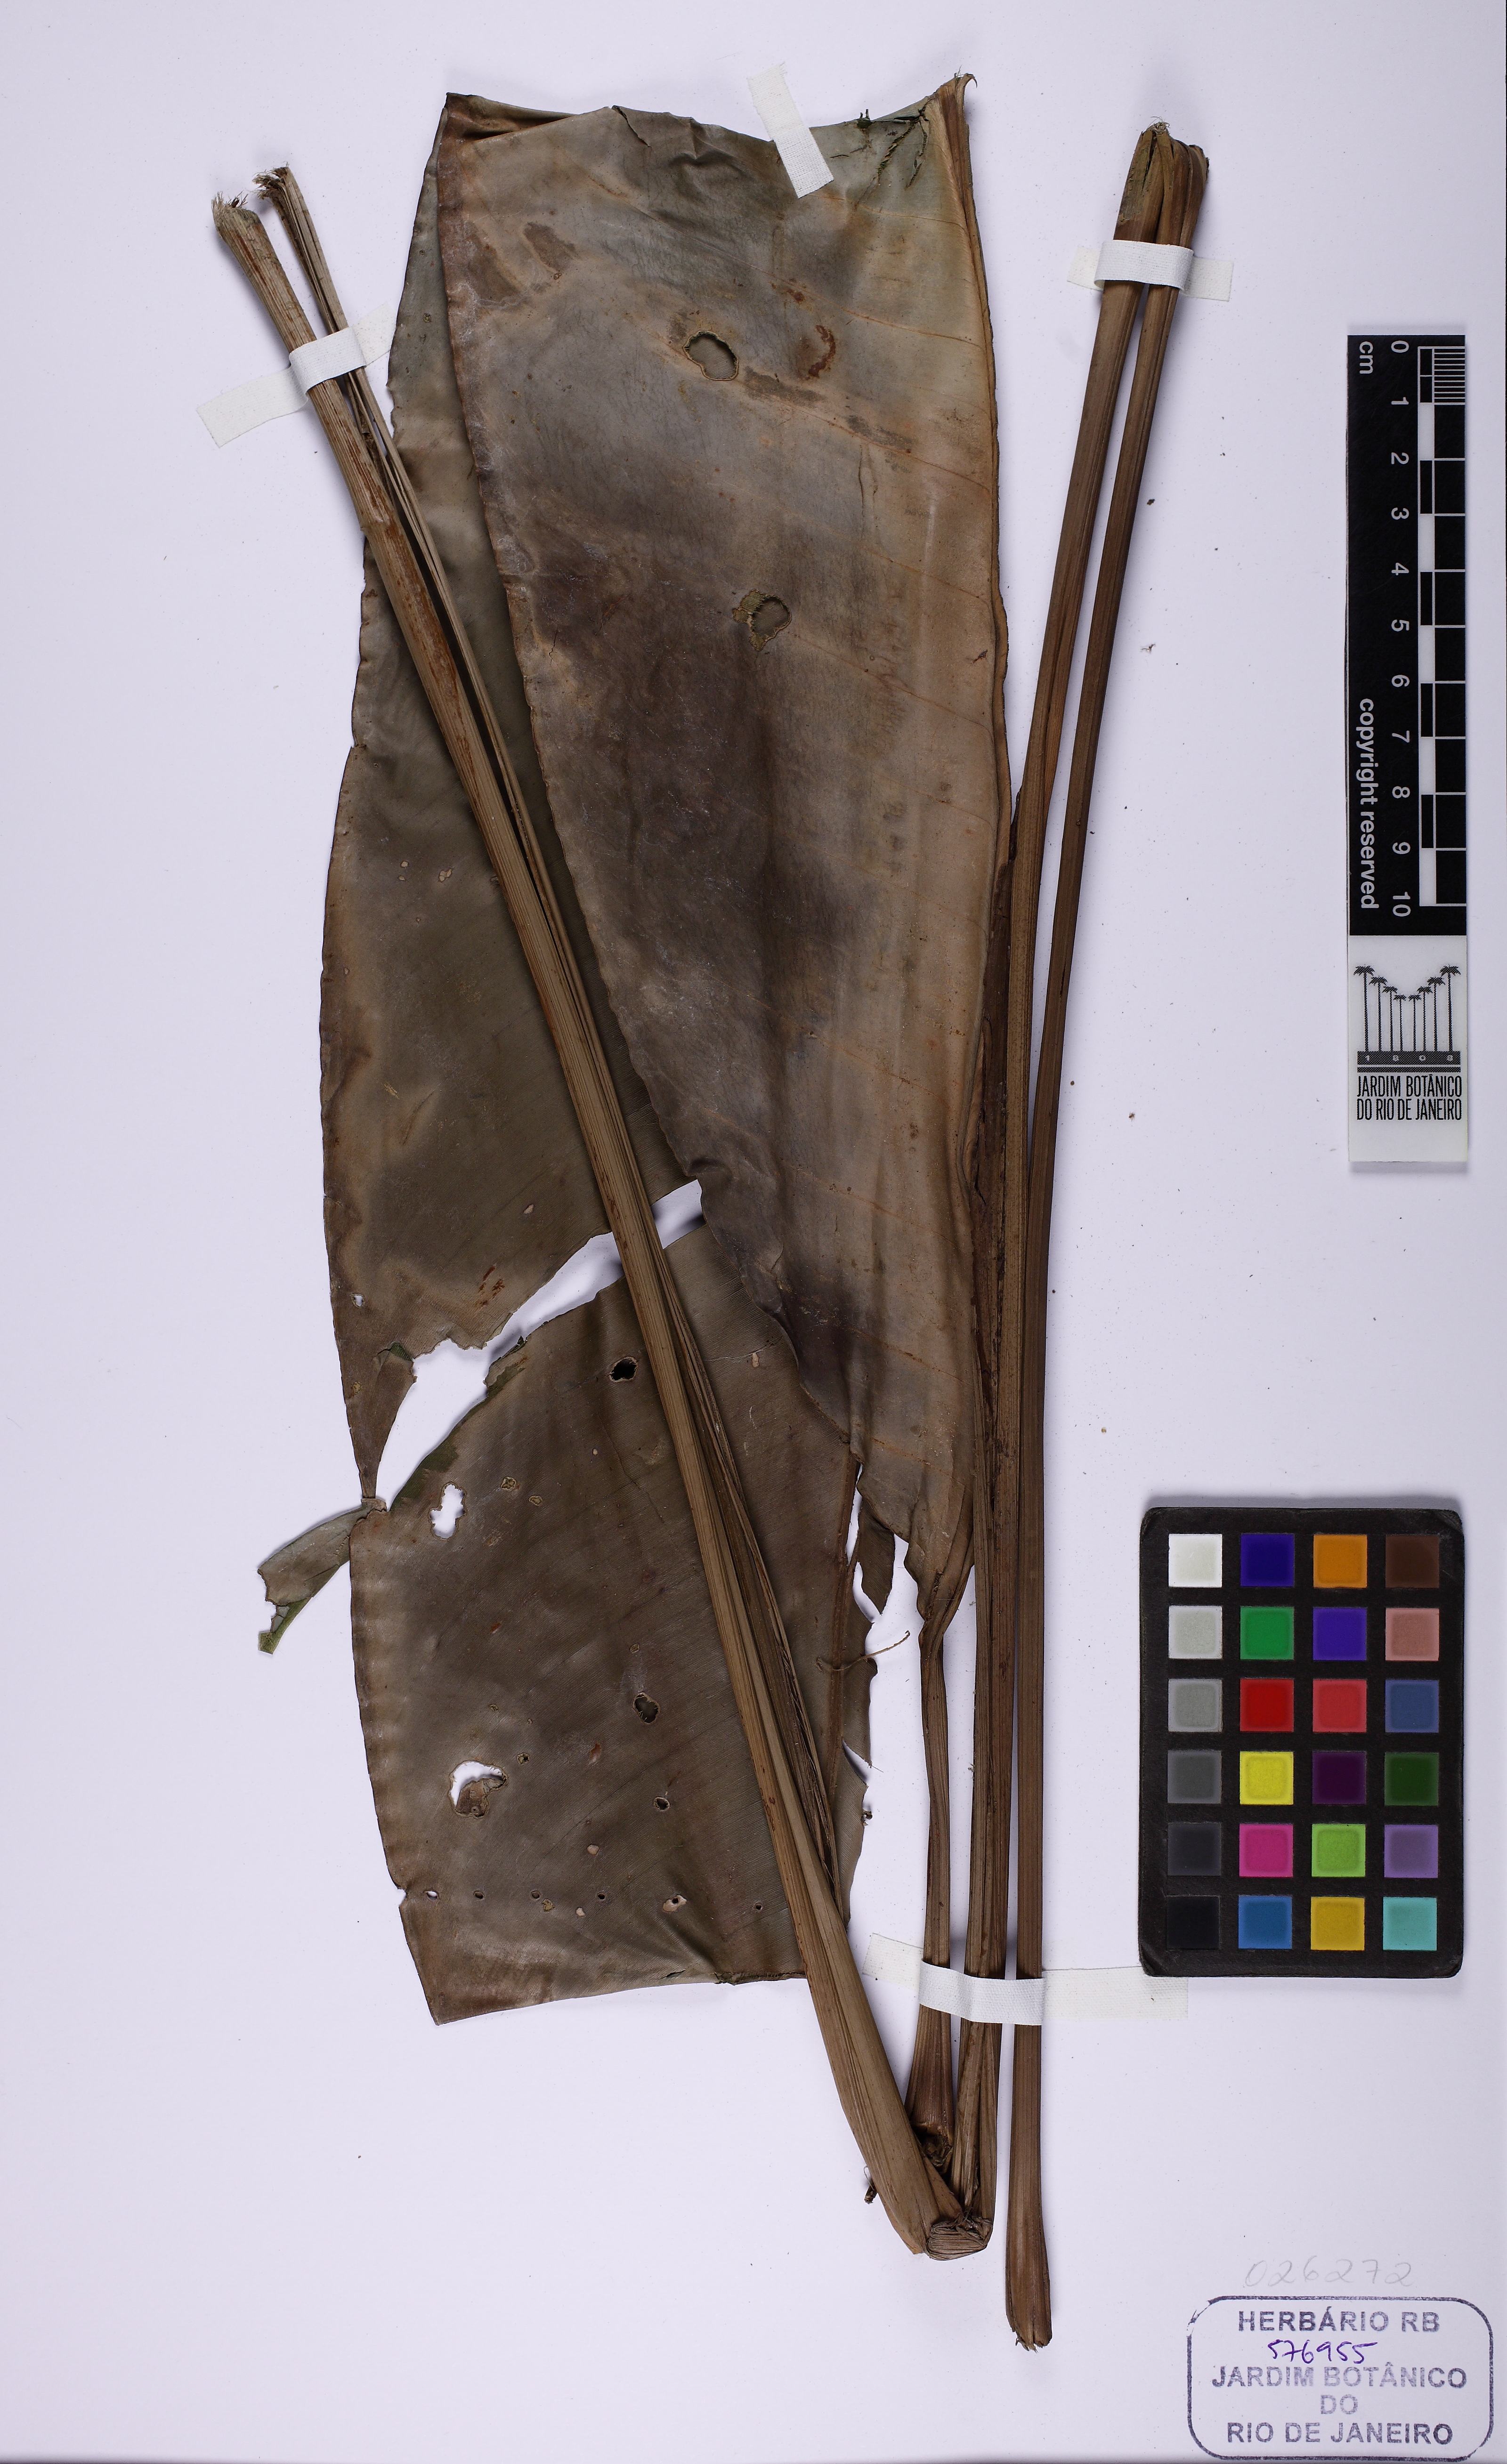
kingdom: Plantae
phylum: Tracheophyta
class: Liliopsida
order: Zingiberales
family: Heliconiaceae
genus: Heliconia
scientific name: Heliconia angusta
